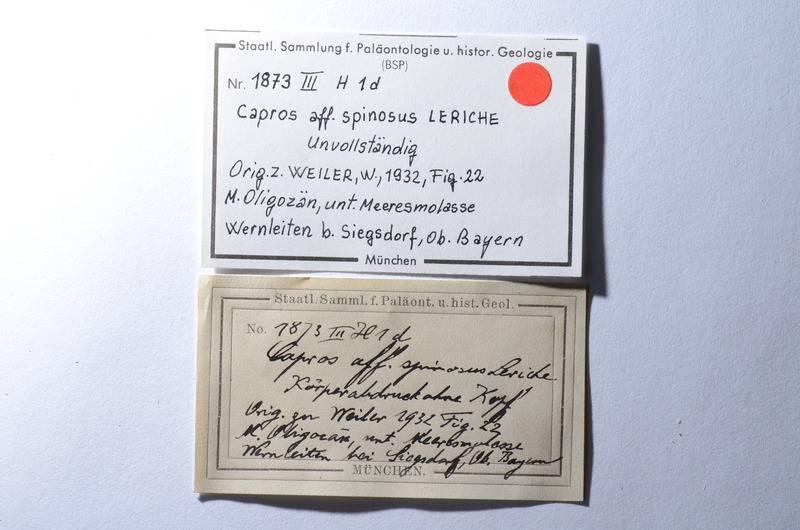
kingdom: Animalia
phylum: Chordata
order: Perciformes
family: Caproidae
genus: Capros
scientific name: Capros
